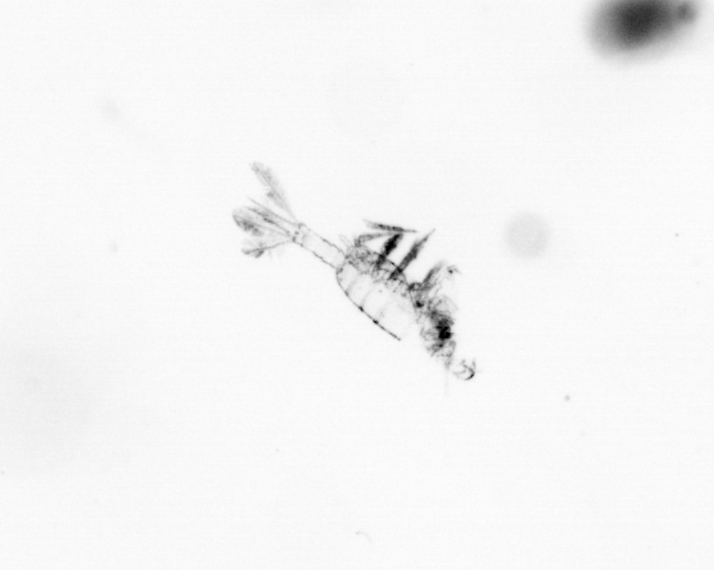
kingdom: Animalia
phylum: Arthropoda
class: Copepoda
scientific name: Copepoda
